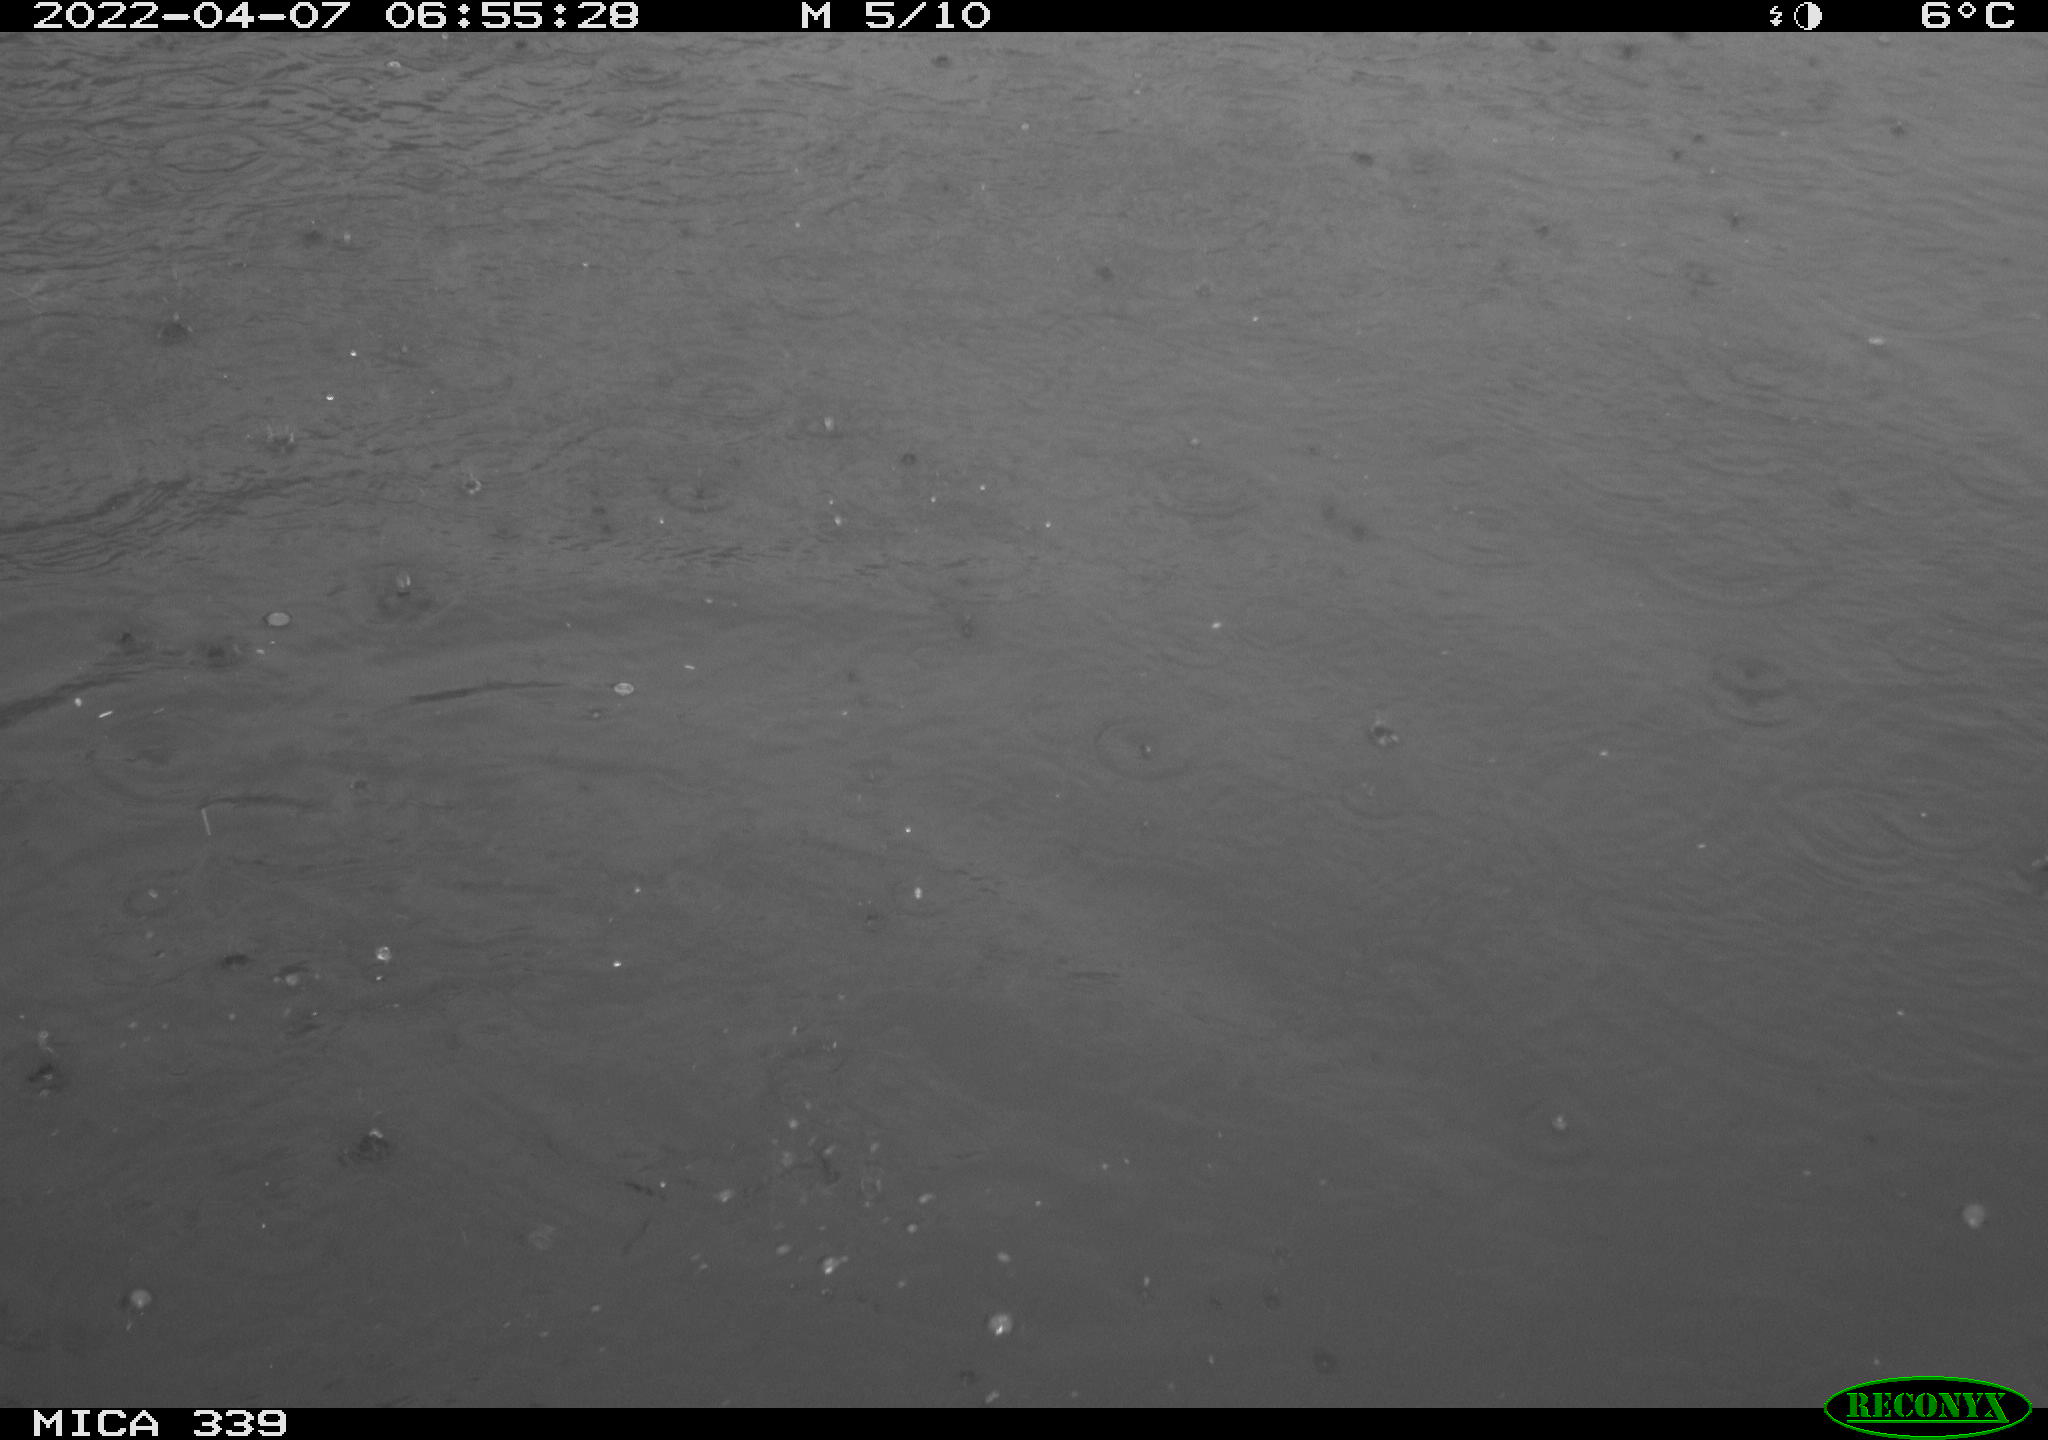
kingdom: Animalia
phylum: Chordata
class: Aves
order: Suliformes
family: Phalacrocoracidae
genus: Phalacrocorax
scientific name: Phalacrocorax carbo
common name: Great cormorant
